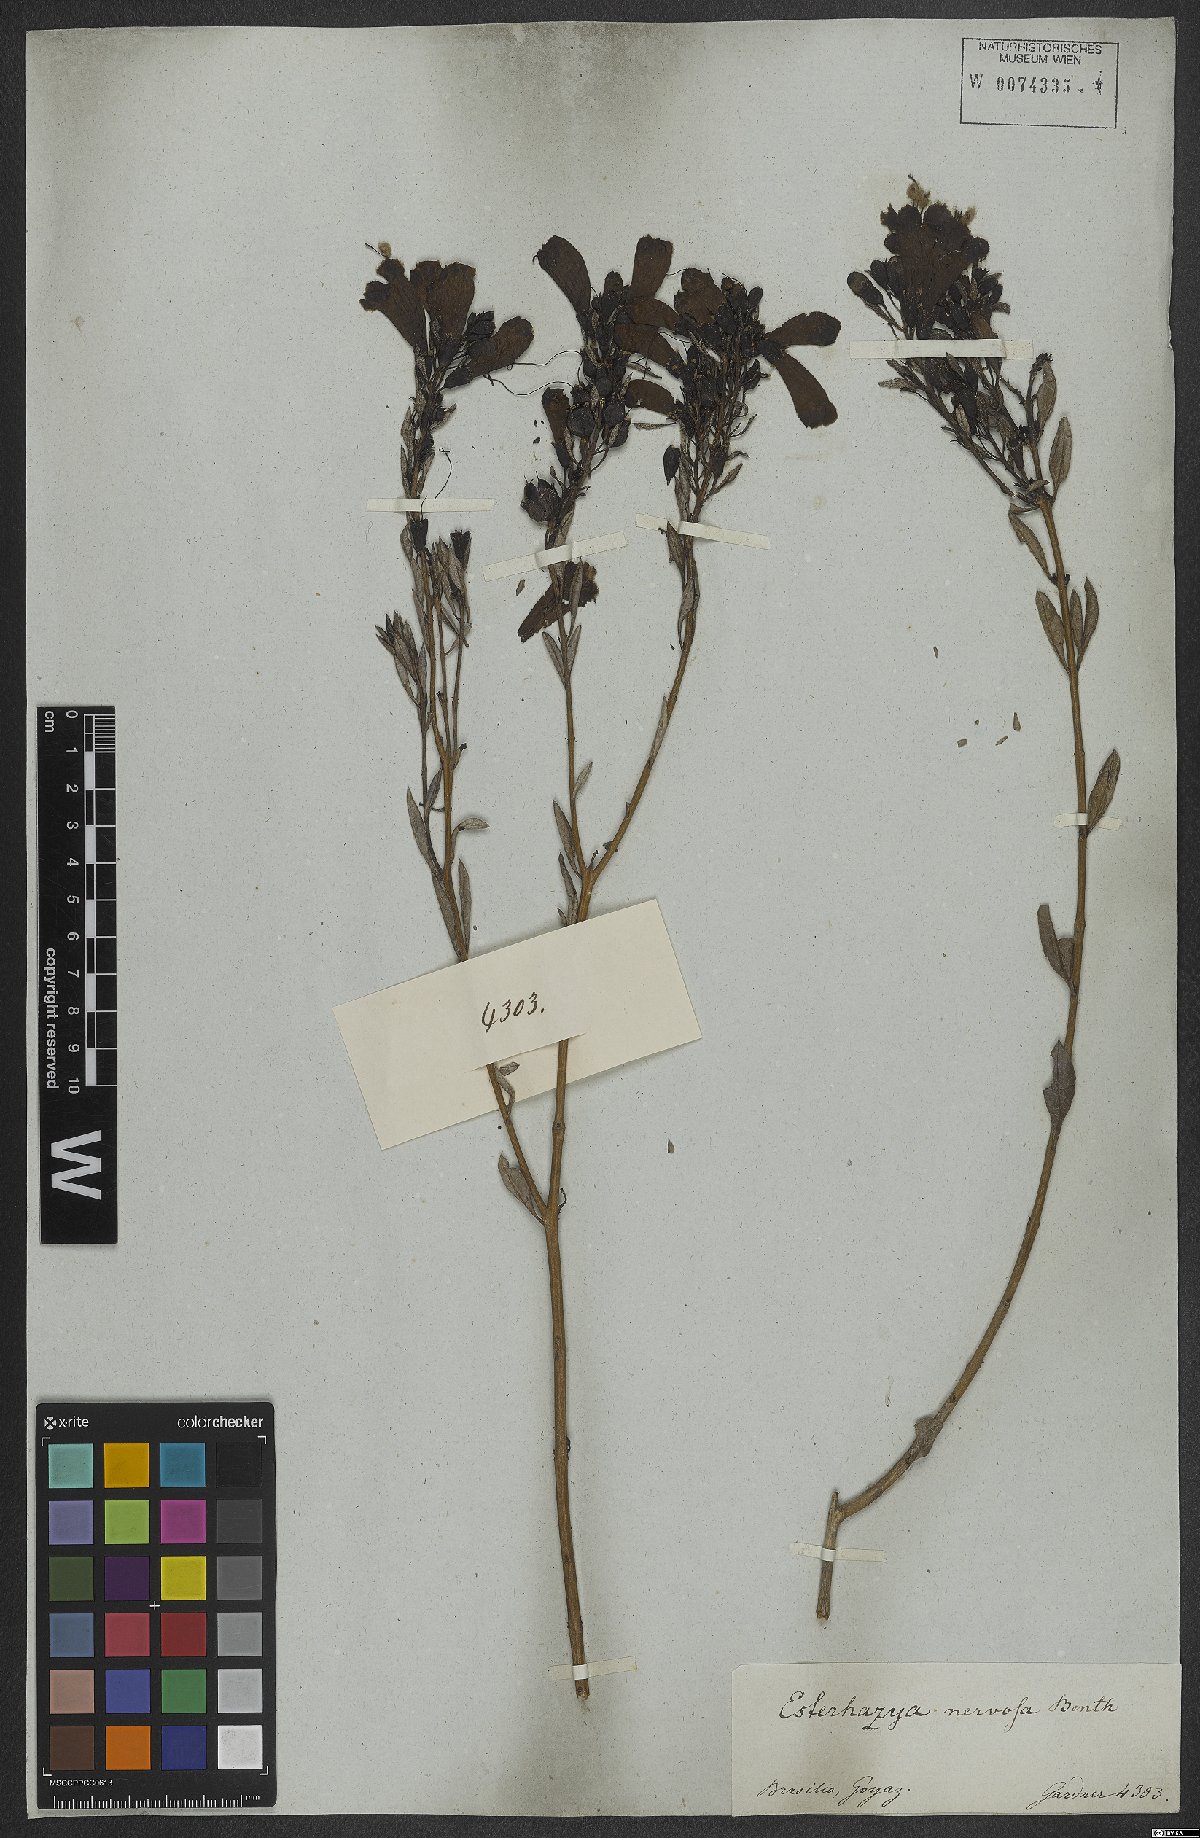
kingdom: Plantae
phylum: Tracheophyta
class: Magnoliopsida
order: Lamiales
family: Orobanchaceae
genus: Esterhazya
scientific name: Esterhazya splendida
